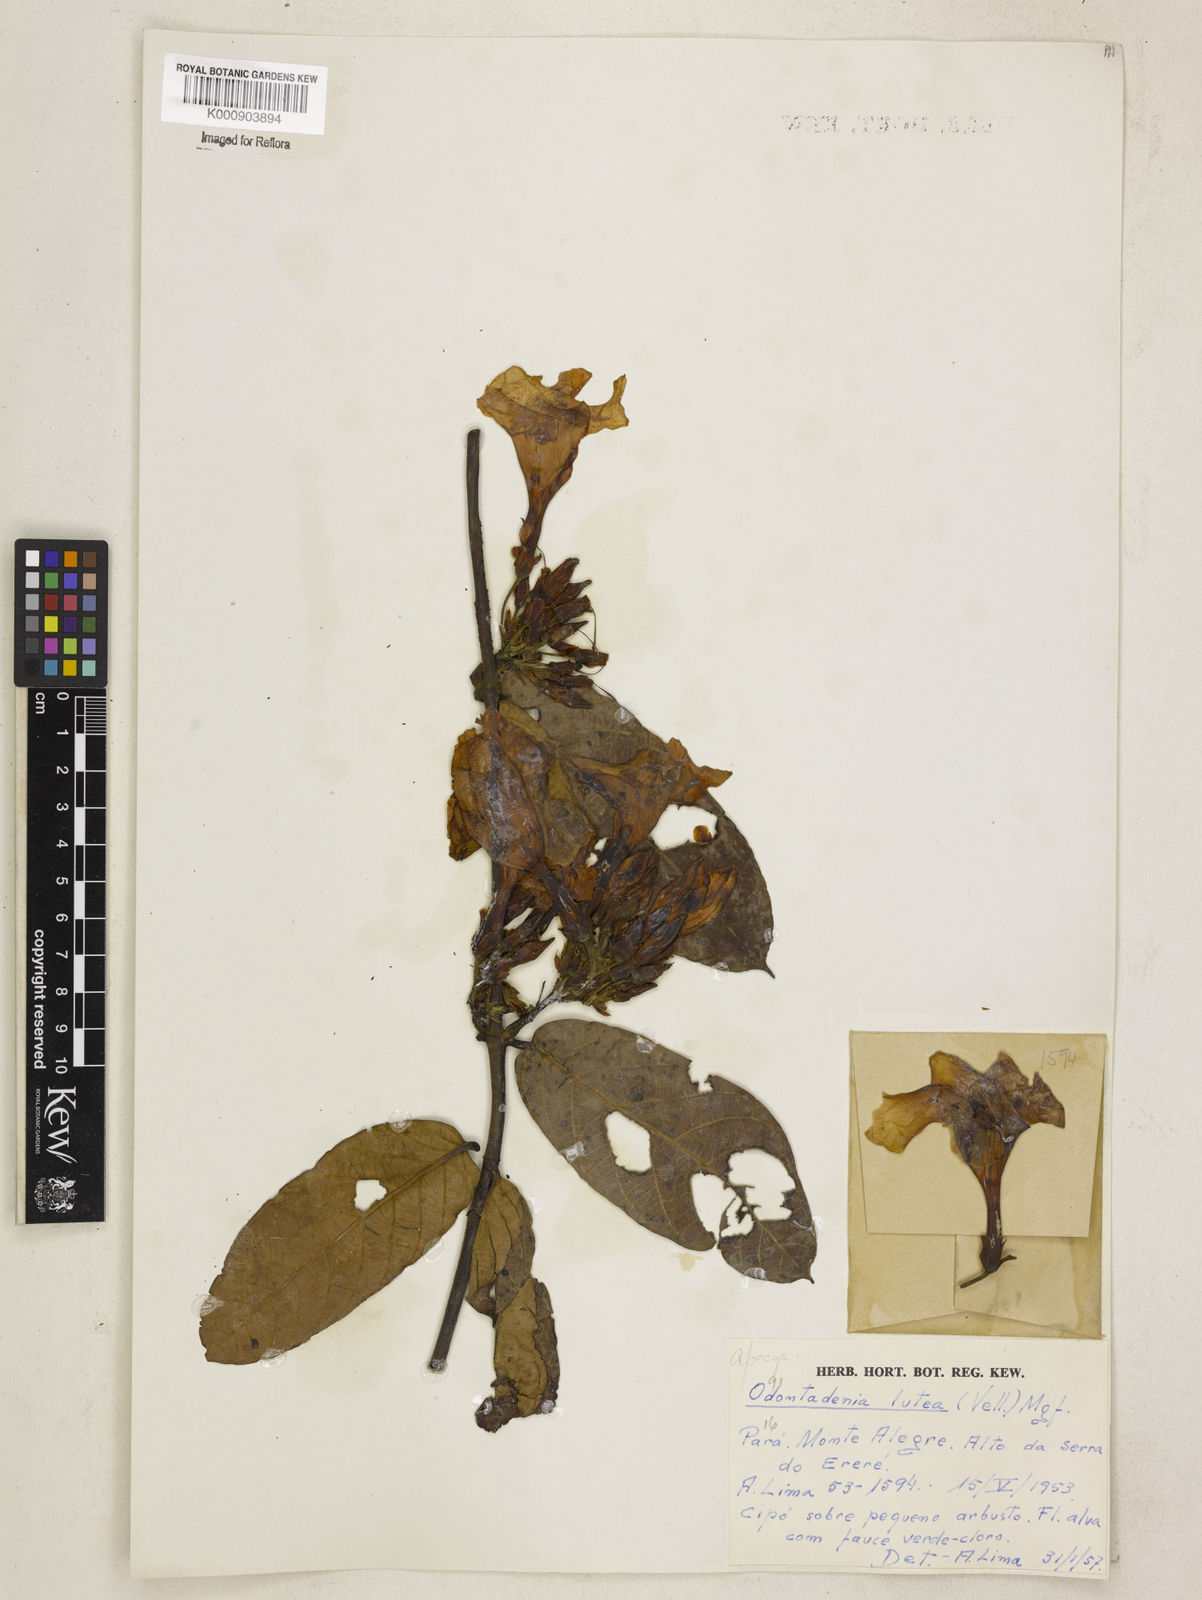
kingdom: Plantae
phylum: Tracheophyta
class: Magnoliopsida
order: Gentianales
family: Apocynaceae
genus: Odontadenia
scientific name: Odontadenia lutea
